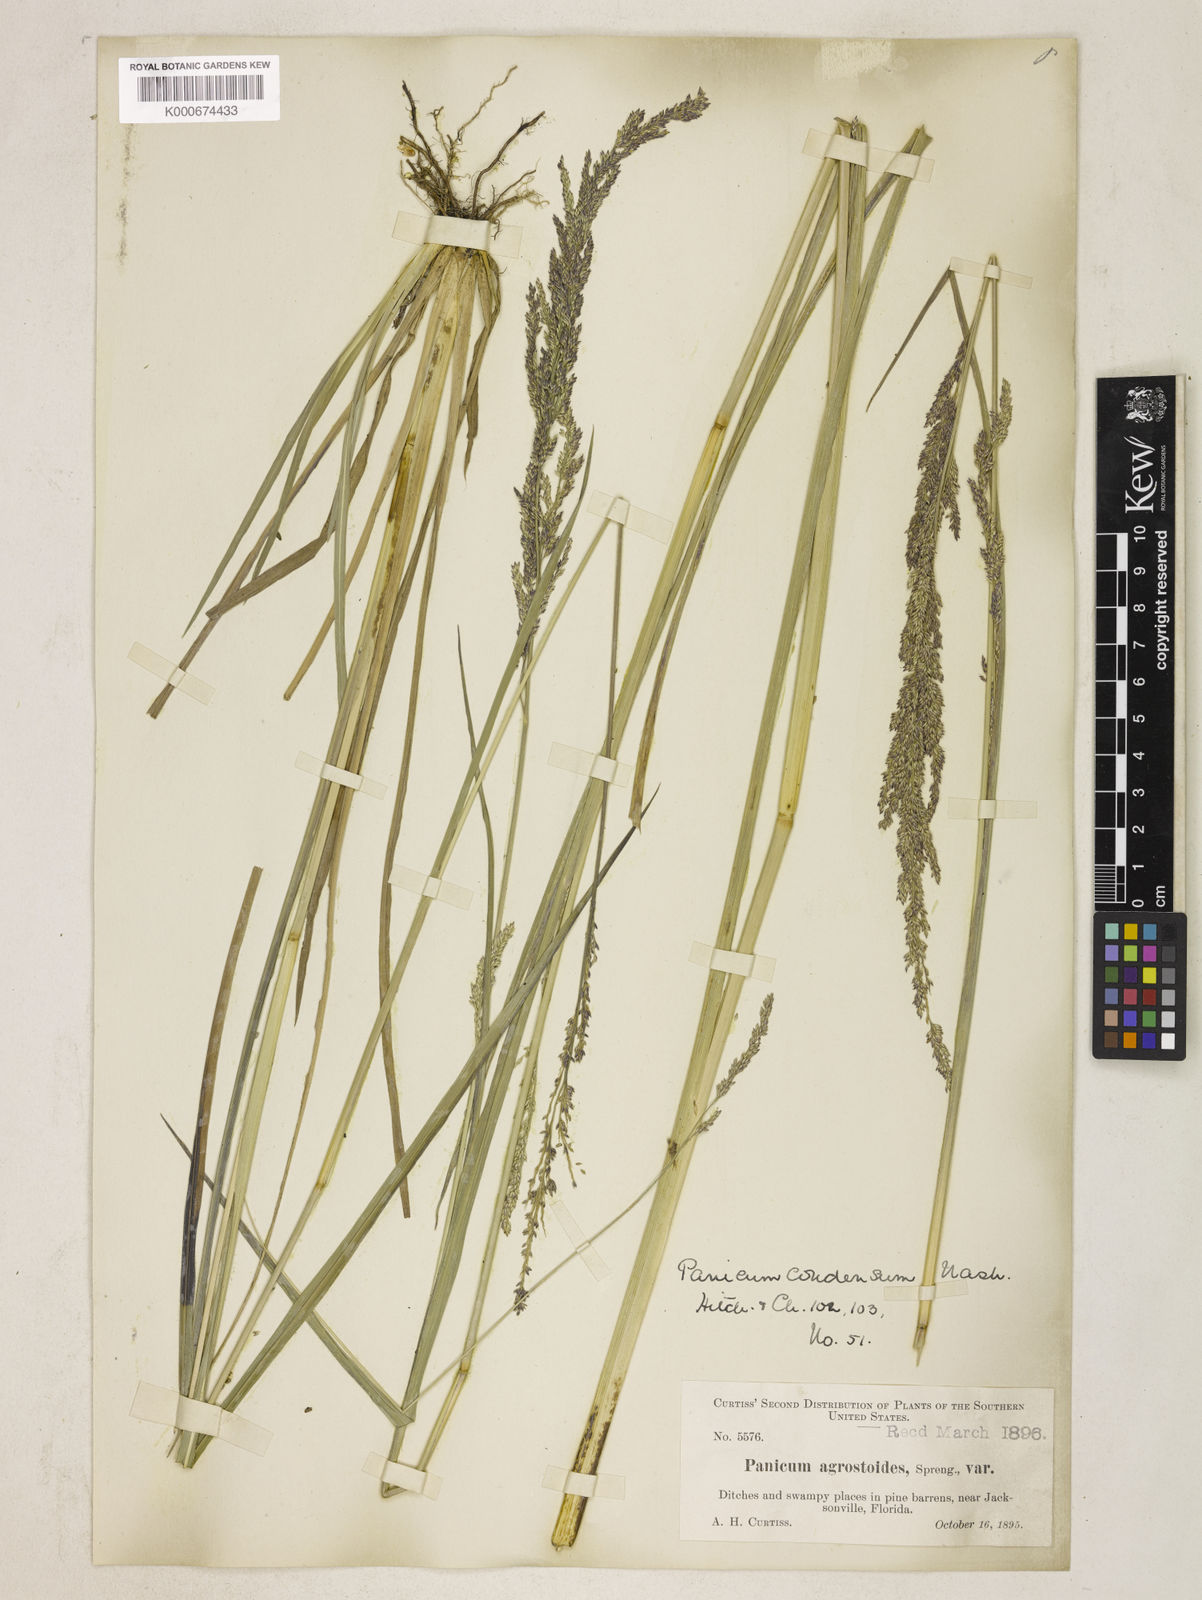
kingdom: Plantae
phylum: Tracheophyta
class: Liliopsida
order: Poales
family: Poaceae
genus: Coleataenia
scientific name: Coleataenia rigidula
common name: Redtop panicgrass
